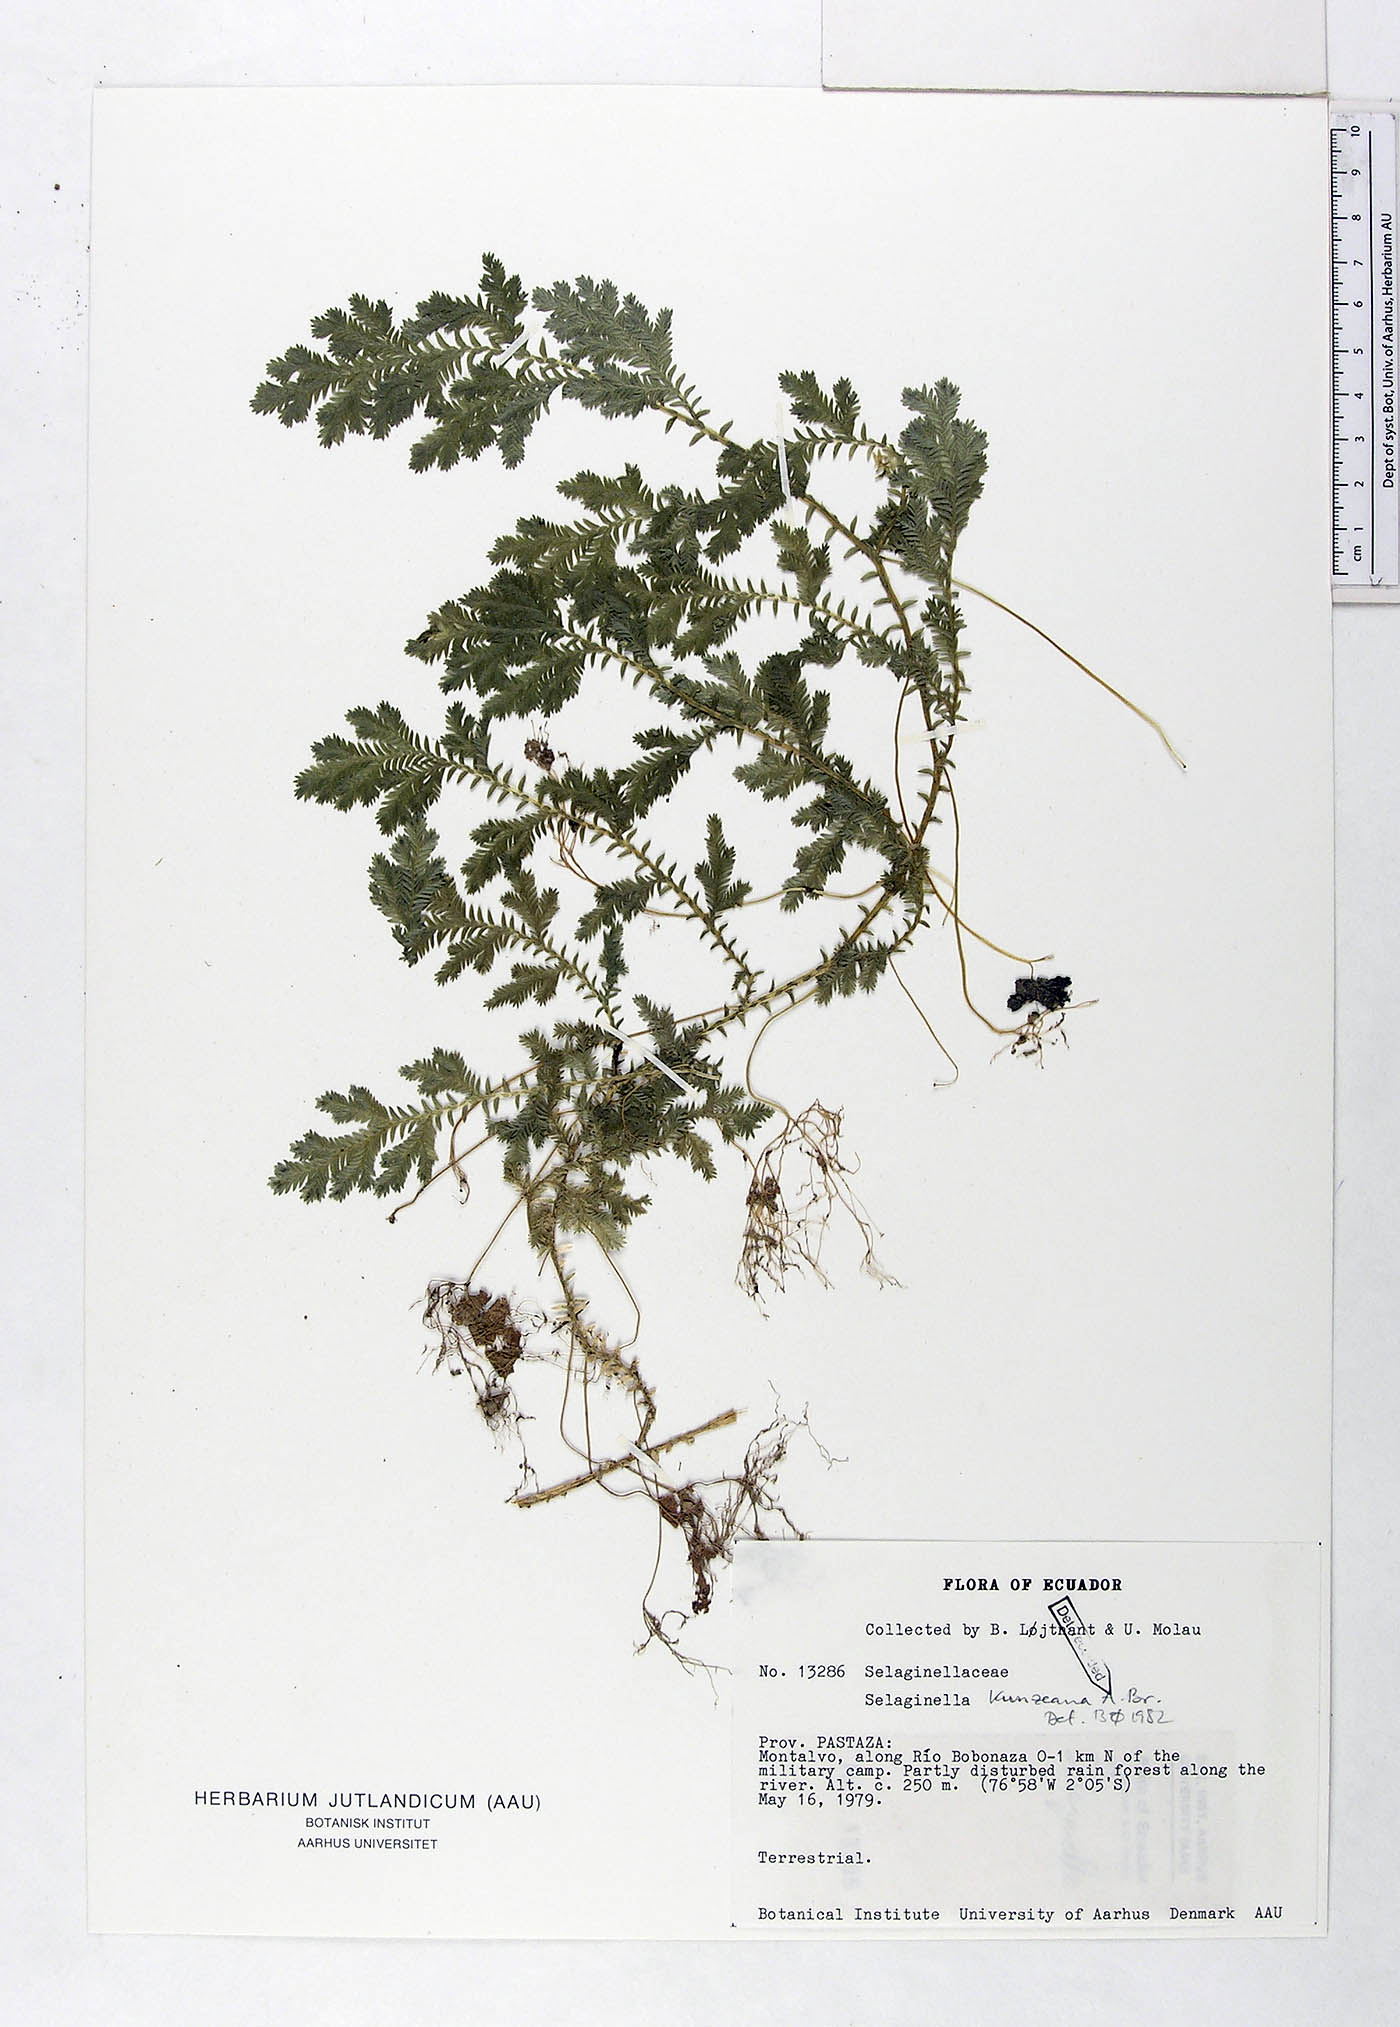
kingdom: Plantae
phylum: Tracheophyta
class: Lycopodiopsida
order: Selaginellales
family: Selaginellaceae
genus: Selaginella
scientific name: Selaginella kunzeana
